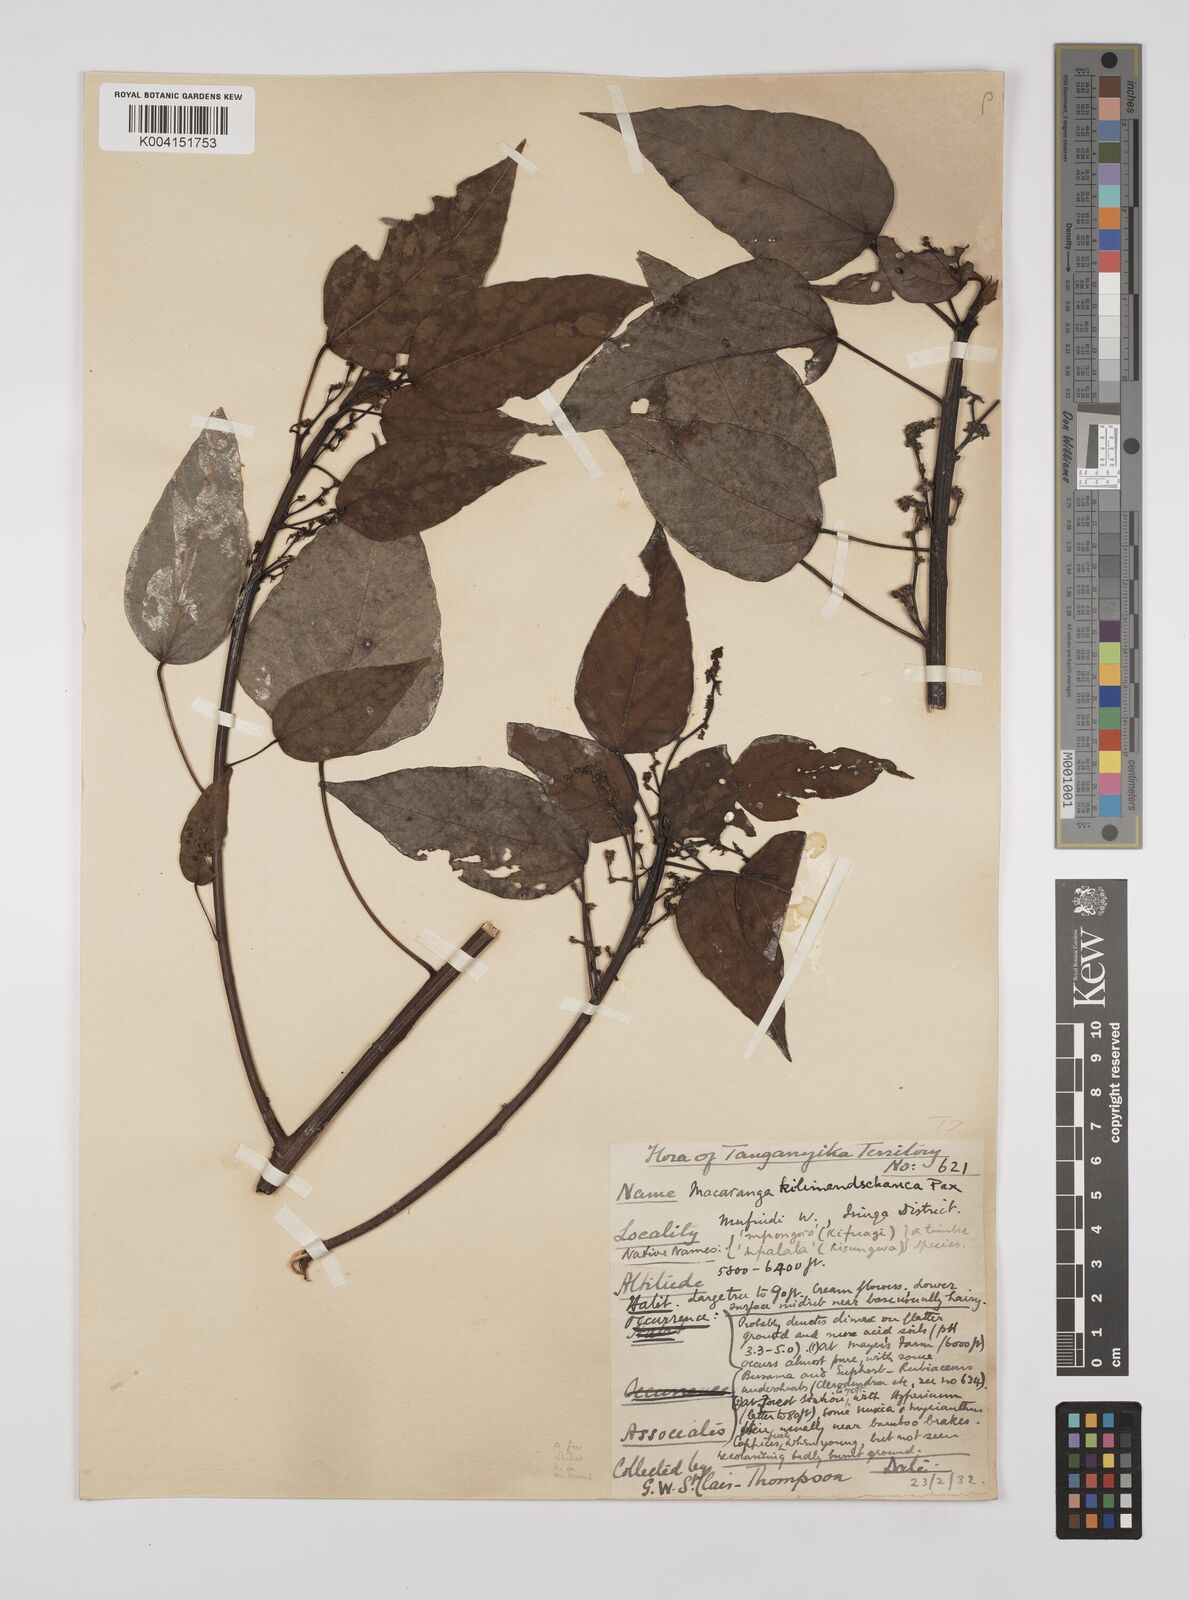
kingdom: Plantae
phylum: Tracheophyta
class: Magnoliopsida
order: Malpighiales
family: Euphorbiaceae
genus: Macaranga
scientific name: Macaranga kilimandscharica
